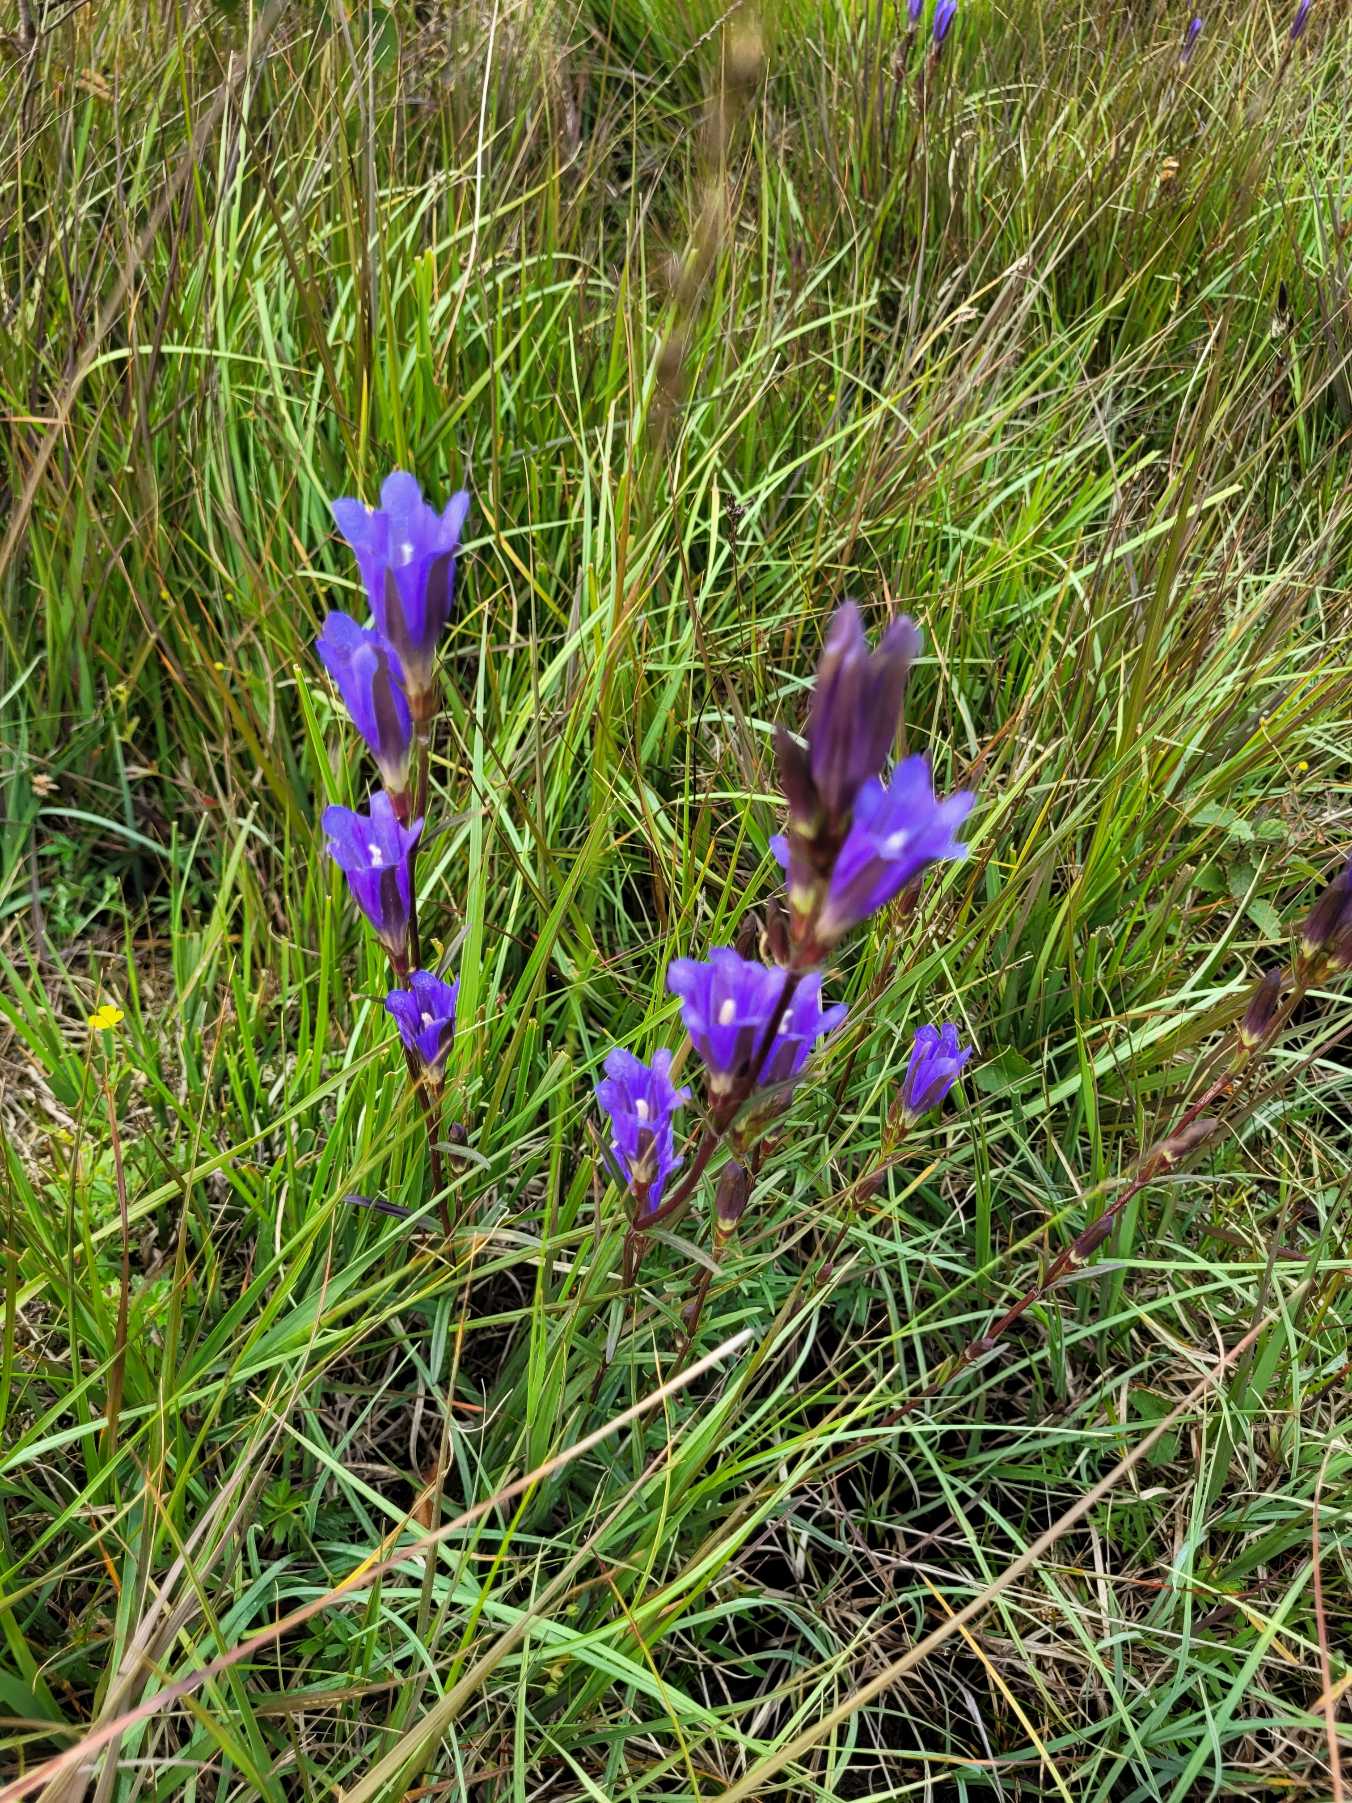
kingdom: Plantae
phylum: Tracheophyta
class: Magnoliopsida
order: Gentianales
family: Gentianaceae
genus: Gentiana
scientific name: Gentiana pneumonanthe
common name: Klokke-ensian
